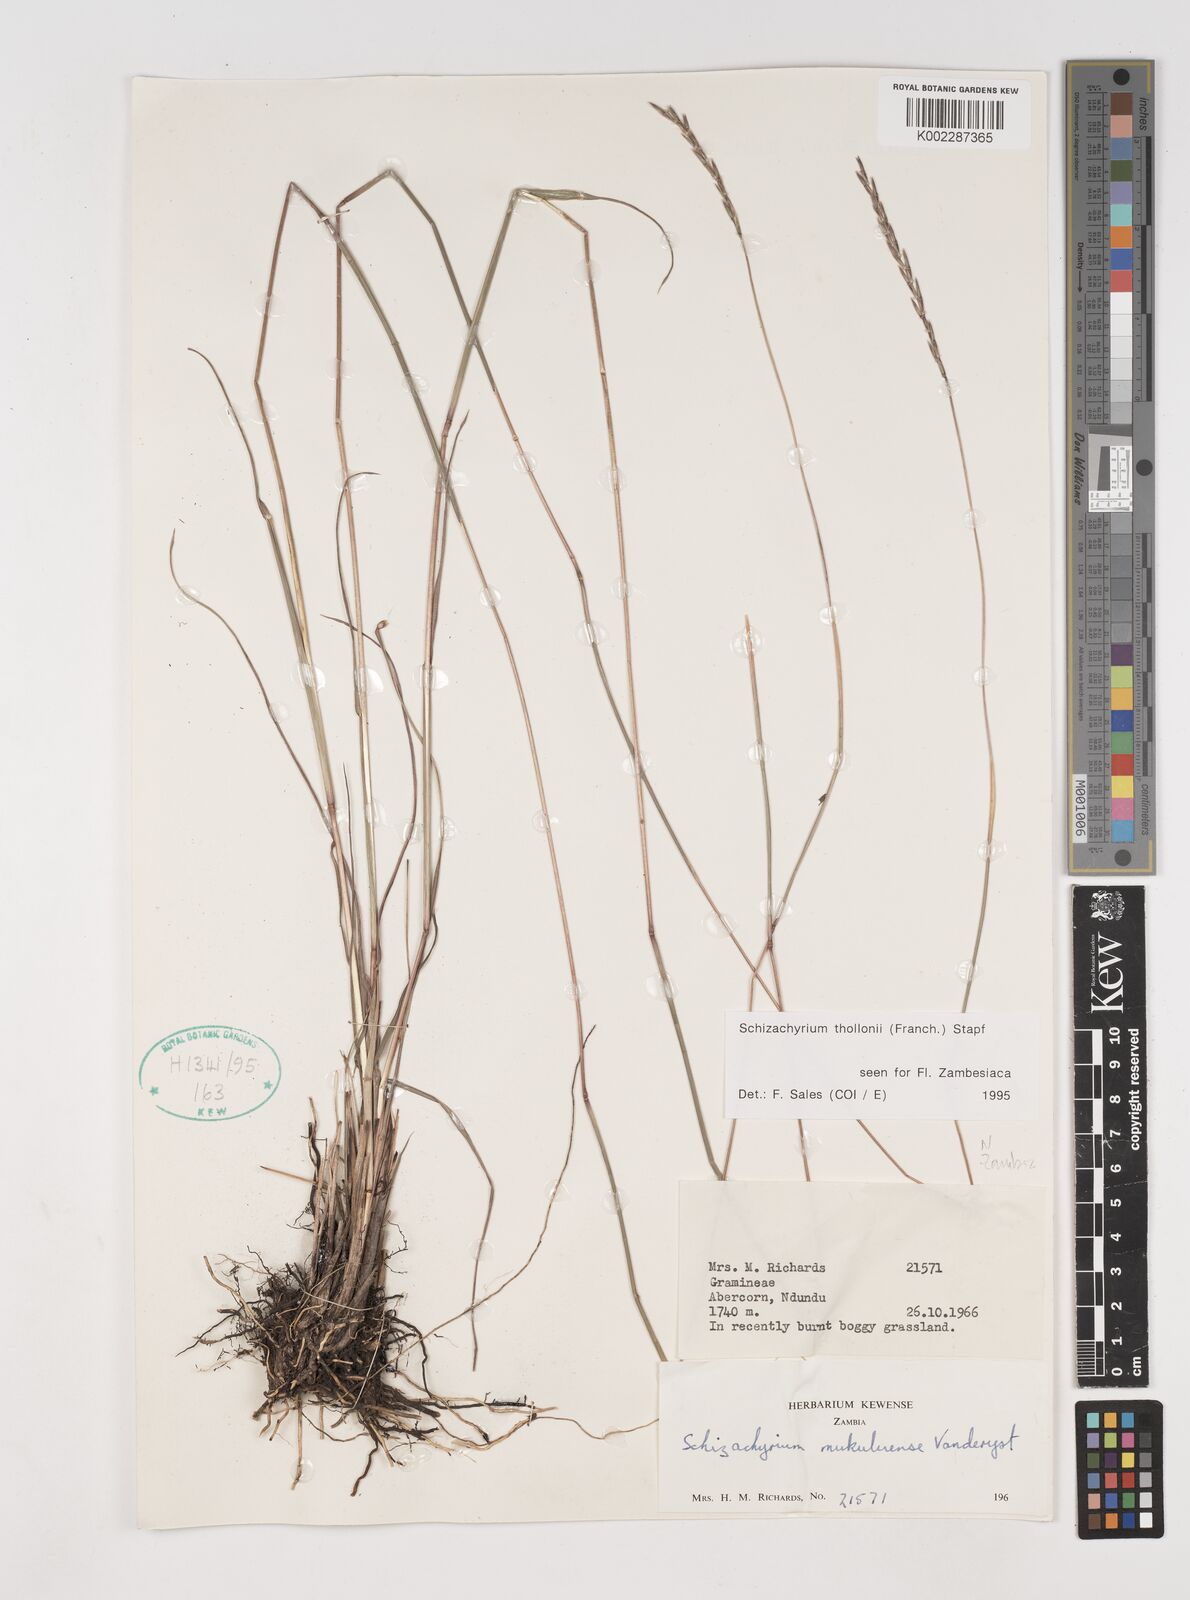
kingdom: Plantae
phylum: Tracheophyta
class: Liliopsida
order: Poales
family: Poaceae
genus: Schizachyrium
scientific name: Schizachyrium thollonii
